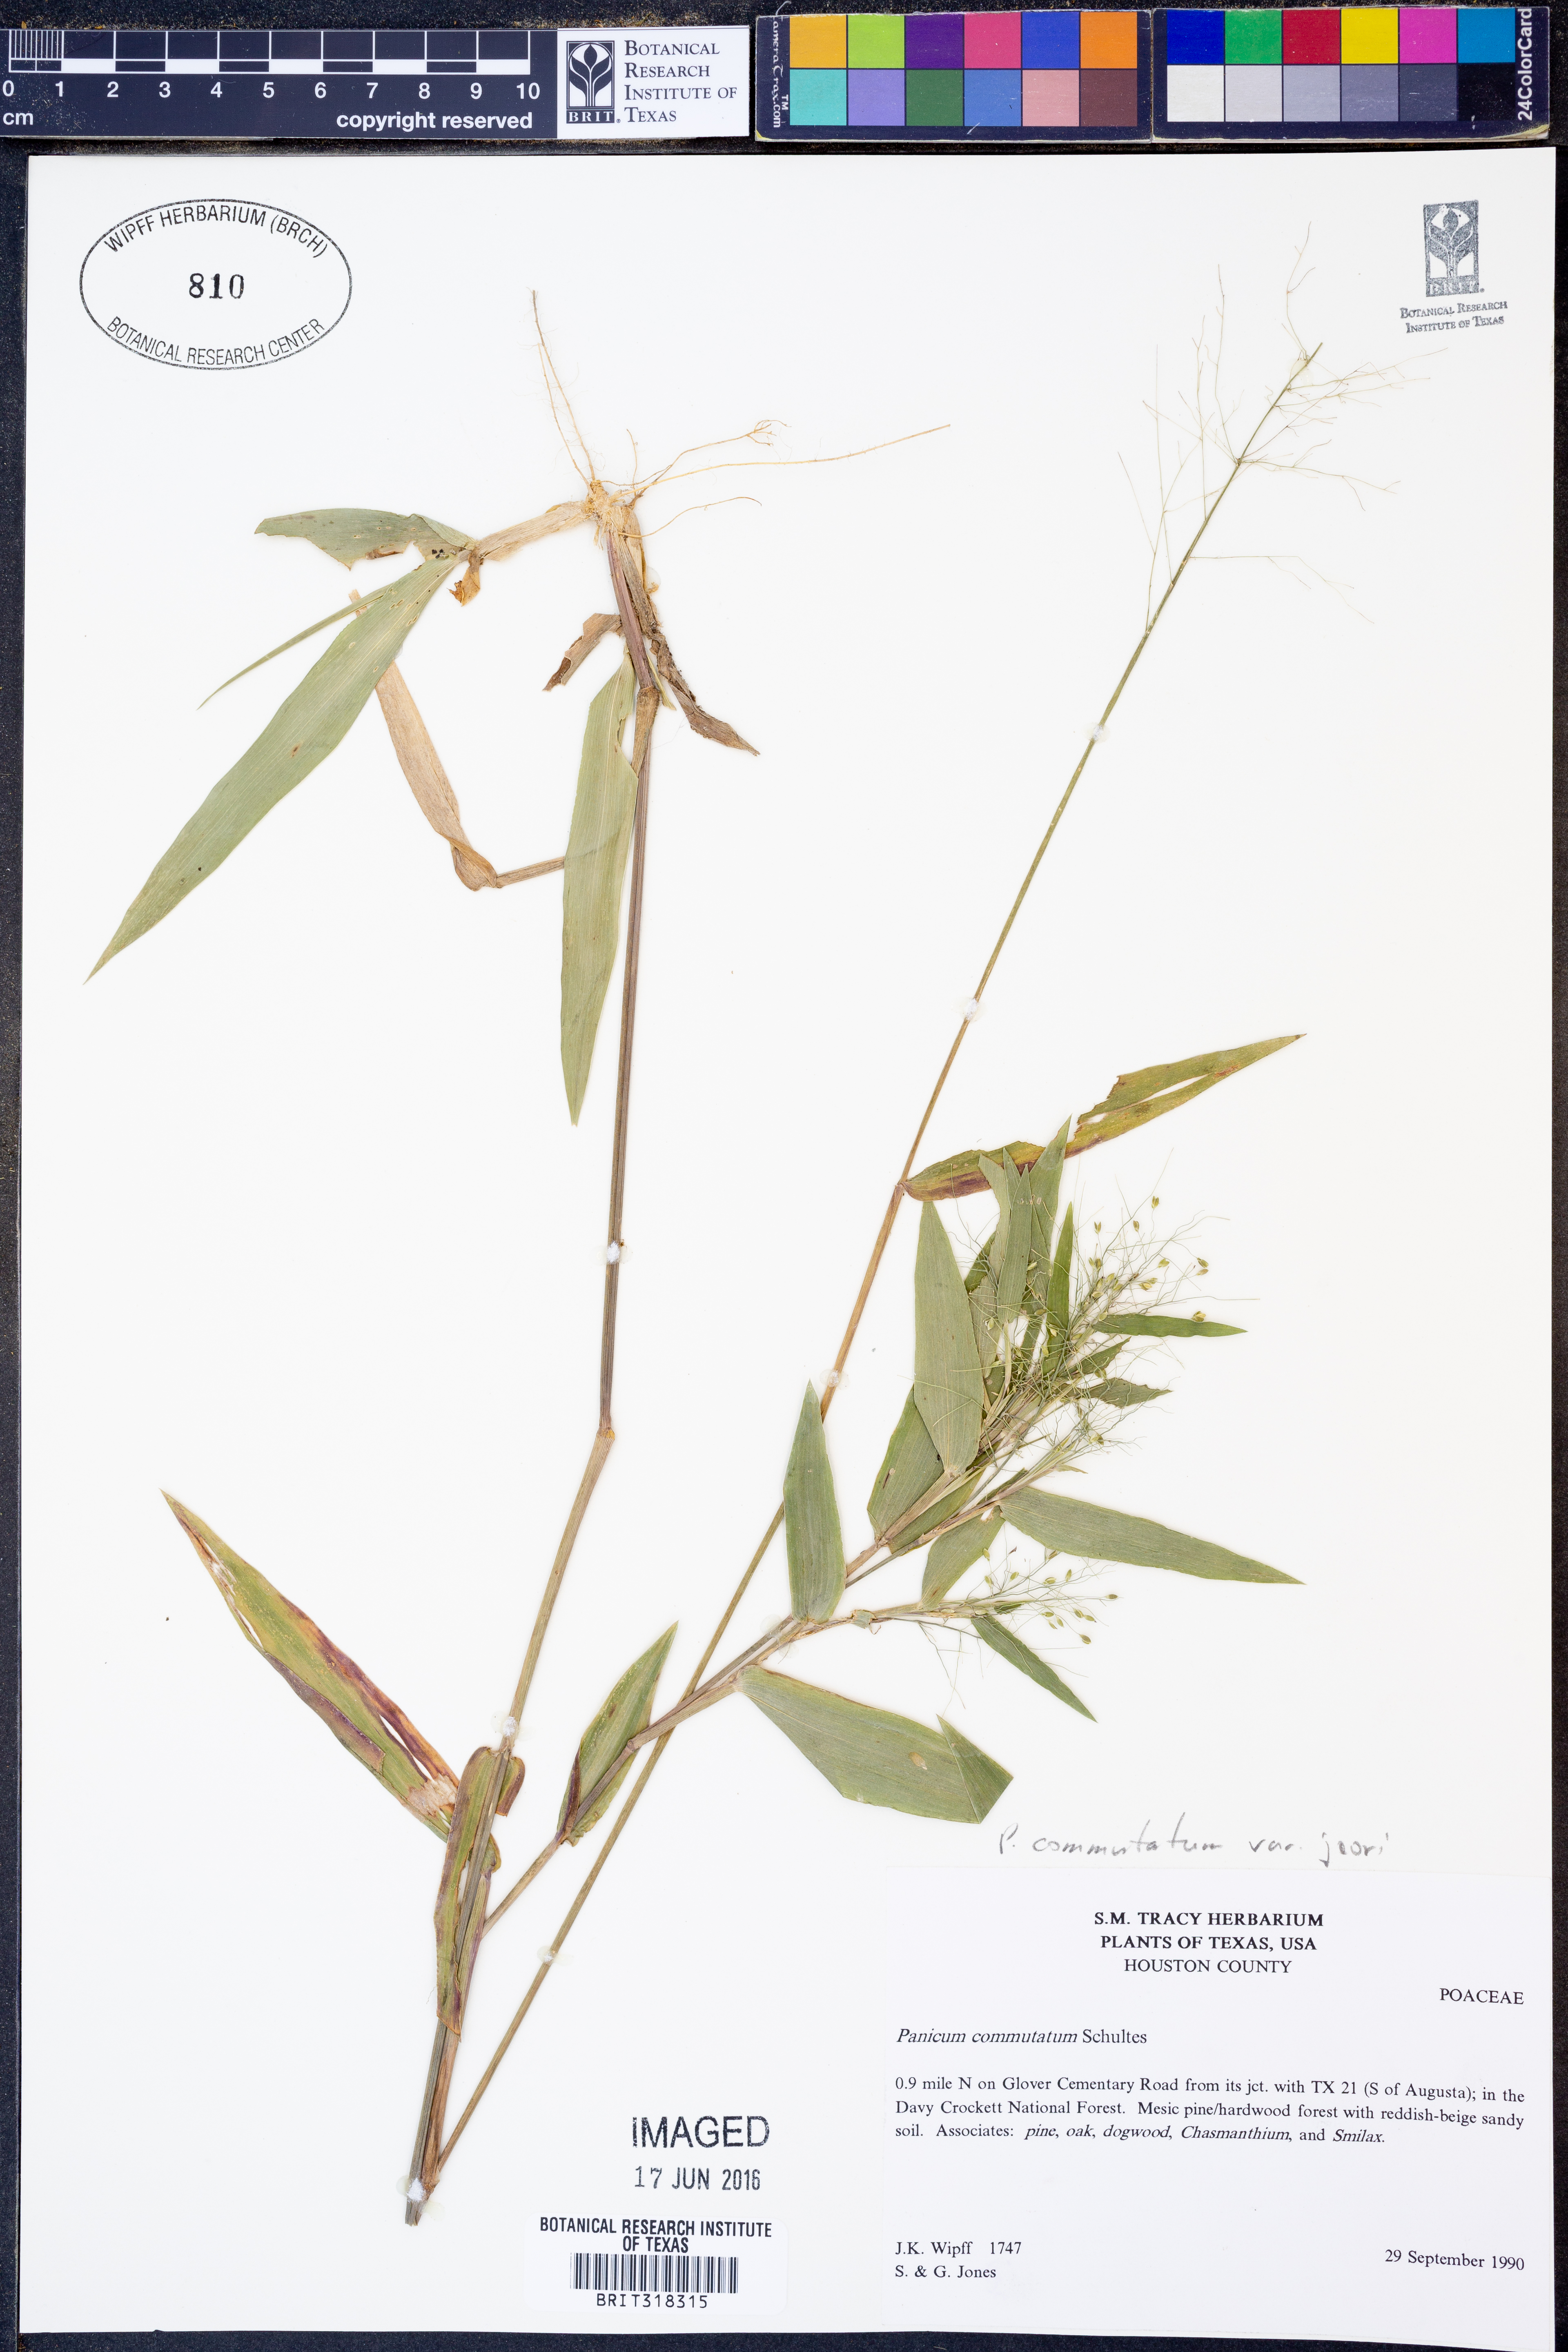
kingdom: Plantae
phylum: Tracheophyta
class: Liliopsida
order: Poales
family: Poaceae
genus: Dichanthelium
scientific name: Dichanthelium commutatum
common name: Variable witchgrass
